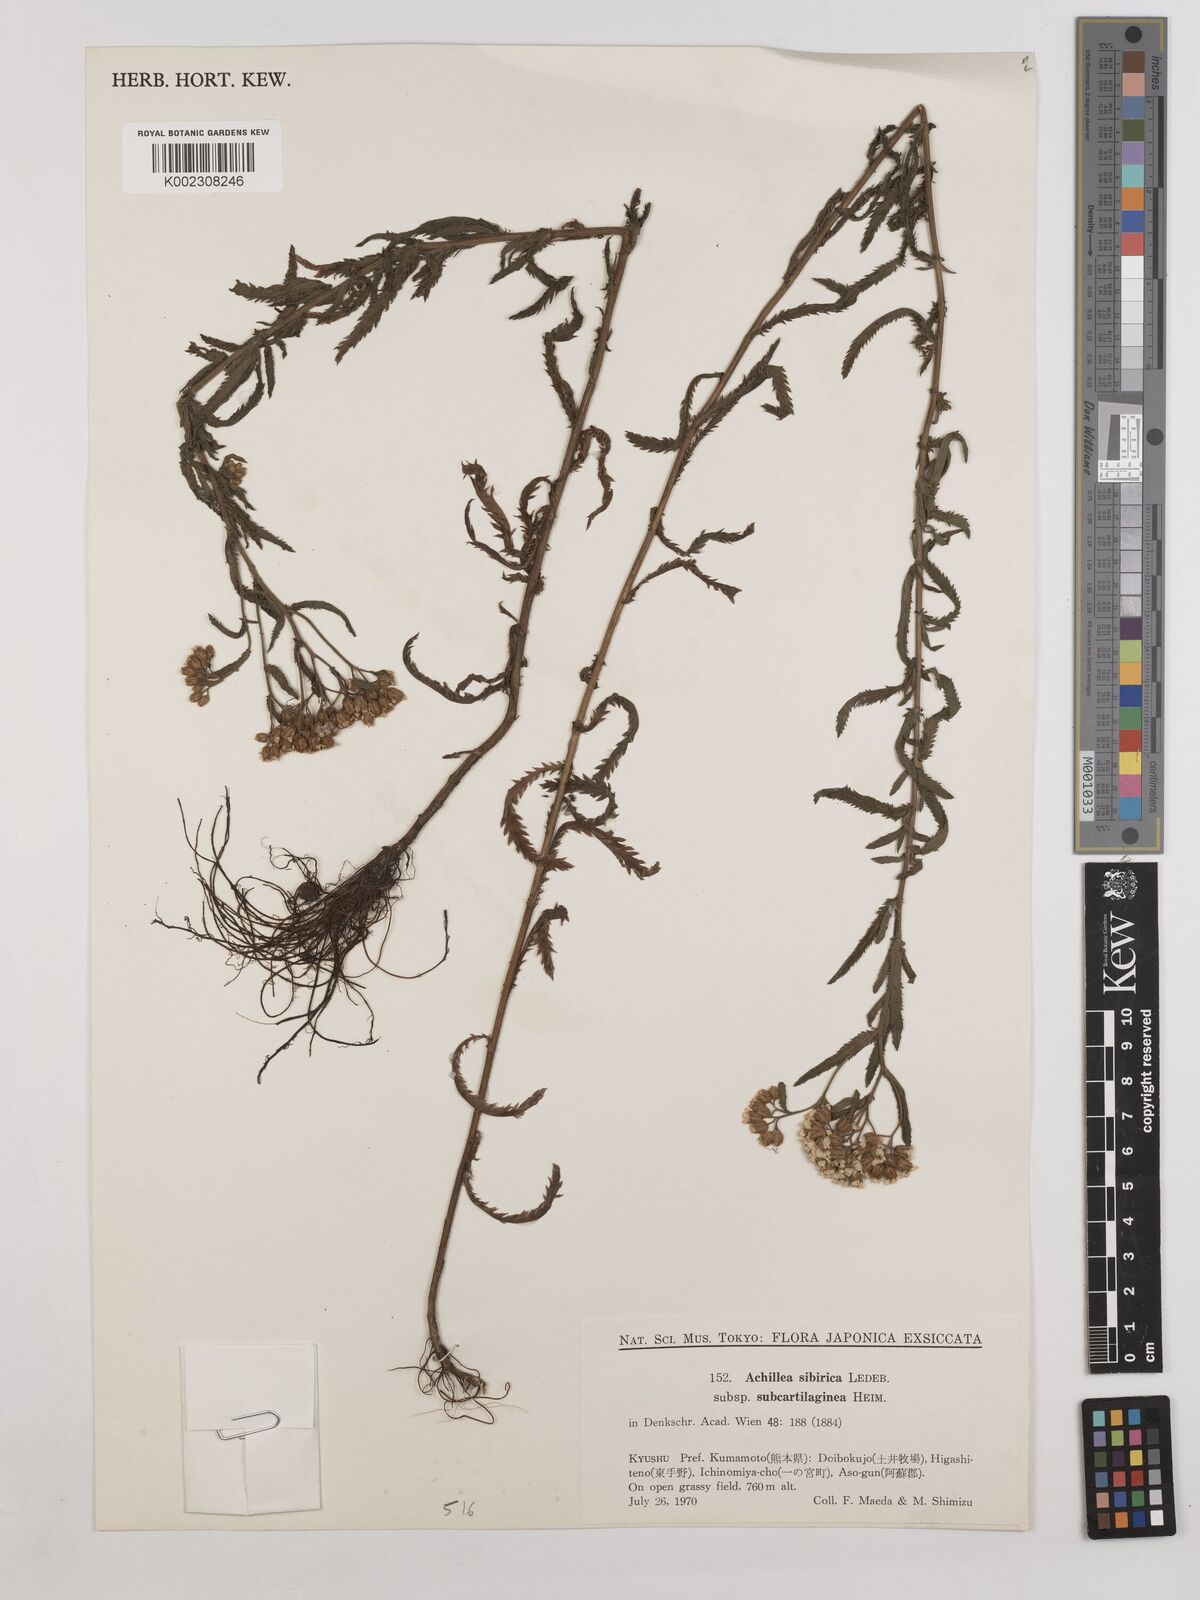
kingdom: Plantae
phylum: Tracheophyta
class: Magnoliopsida
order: Asterales
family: Asteraceae
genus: Achillea
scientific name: Achillea alpina
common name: Siberian yarrow
